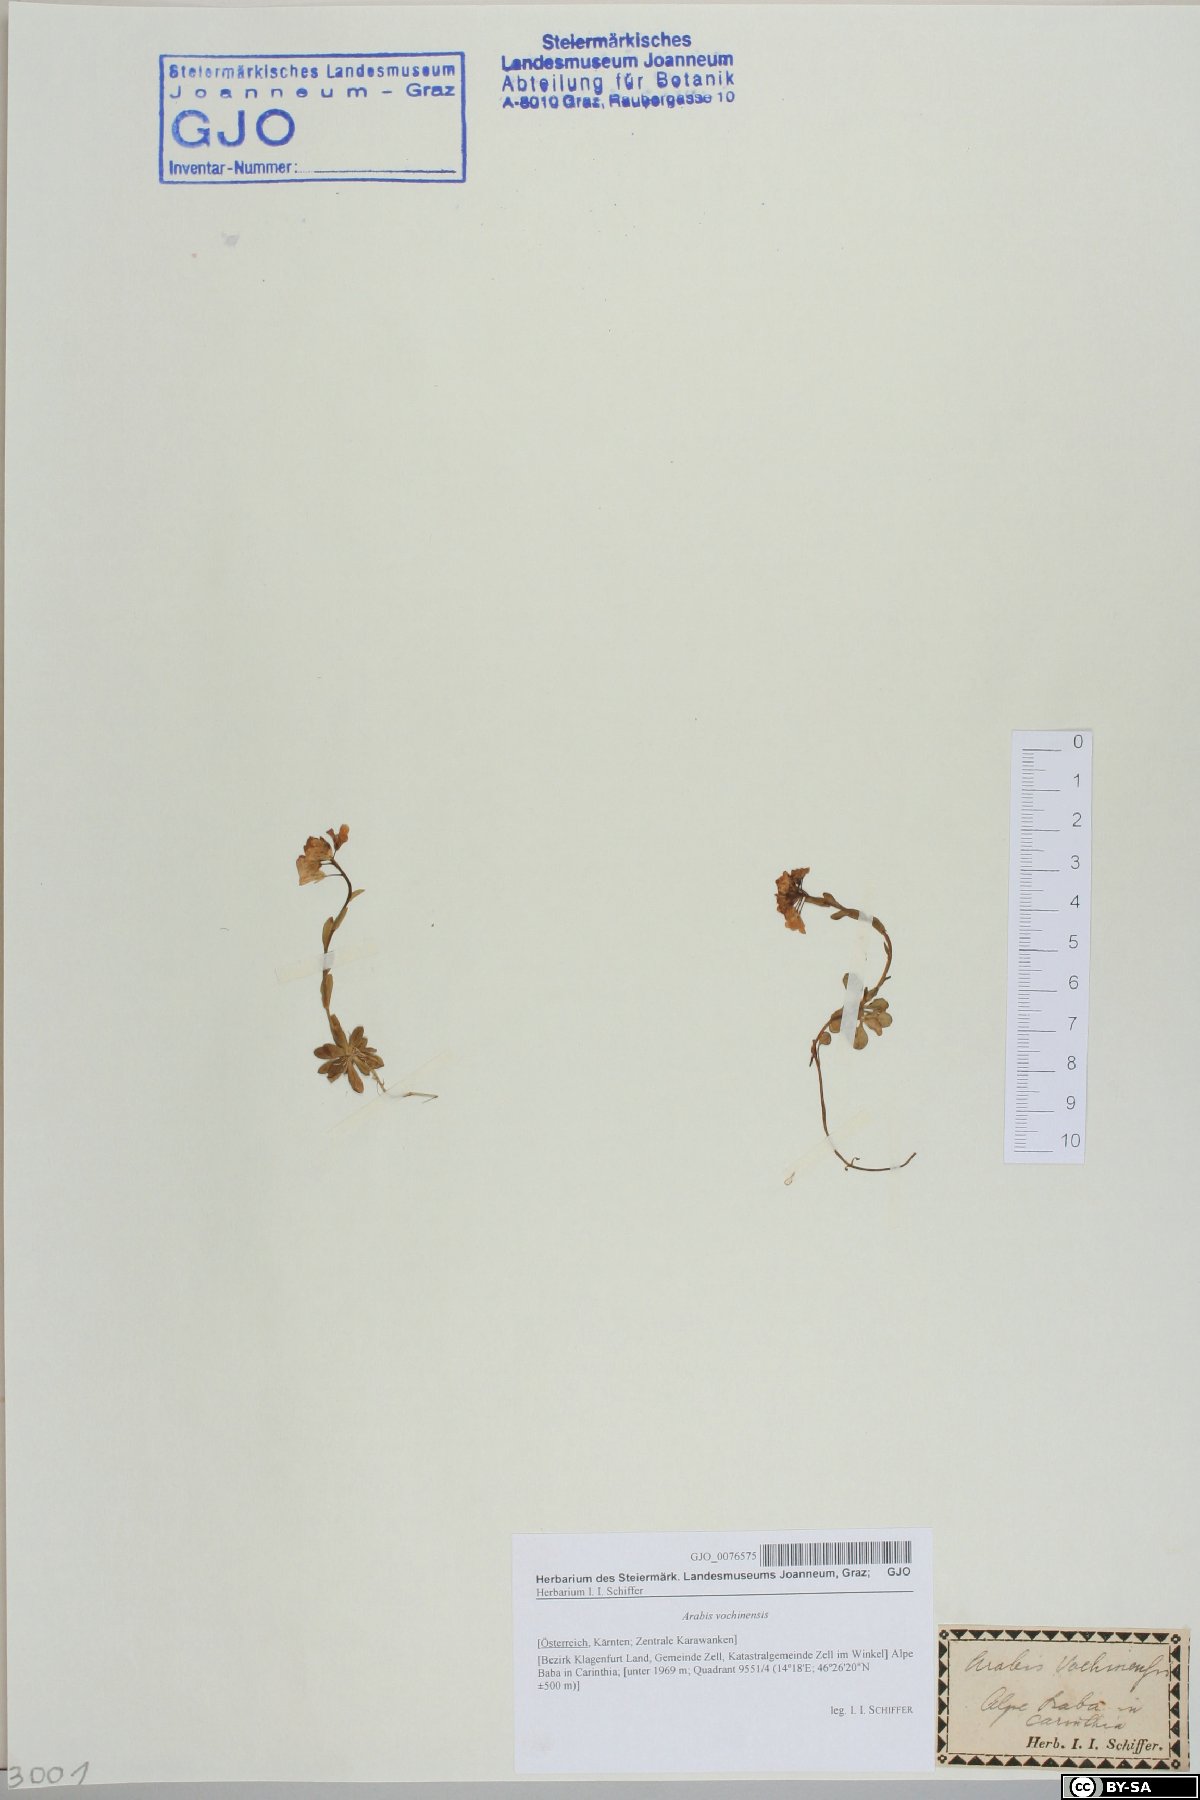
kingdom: Plantae
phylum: Tracheophyta
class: Magnoliopsida
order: Brassicales
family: Brassicaceae
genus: Arabis
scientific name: Arabis vochinensis
